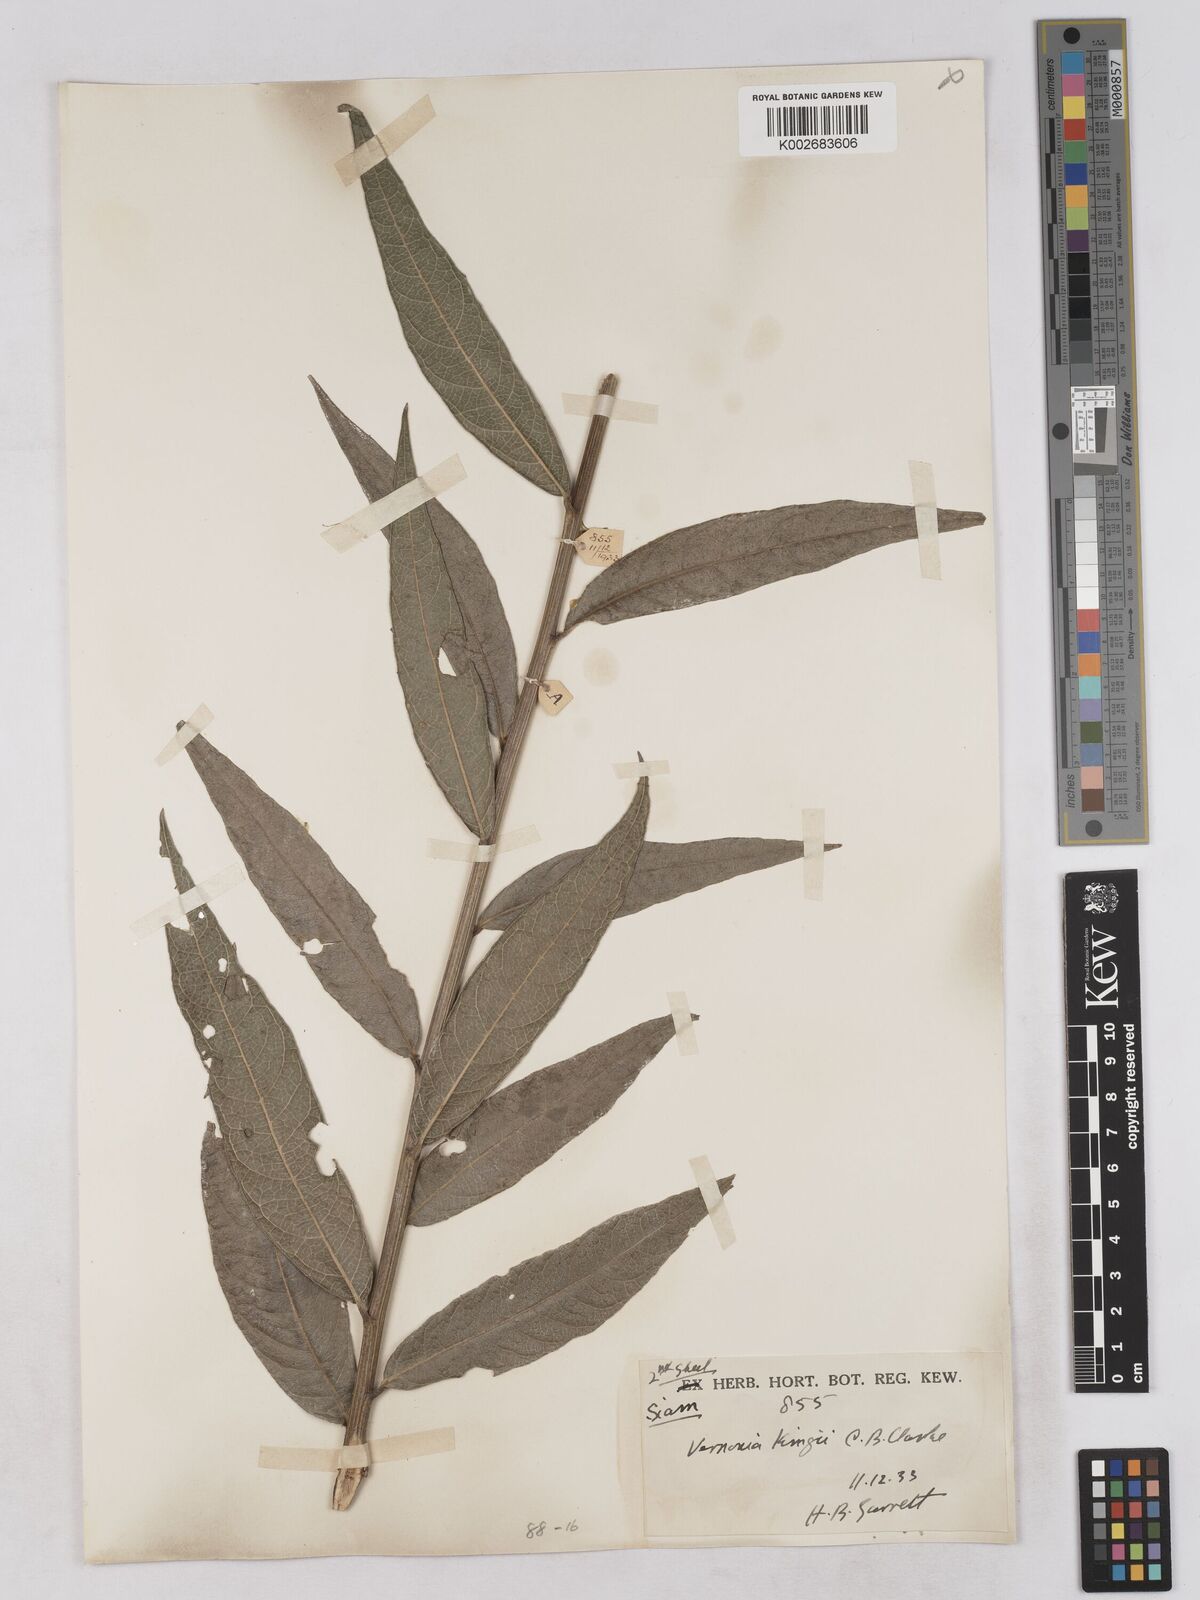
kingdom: Plantae
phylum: Tracheophyta
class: Magnoliopsida
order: Asterales
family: Asteraceae
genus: Acilepis
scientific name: Acilepis kingii
